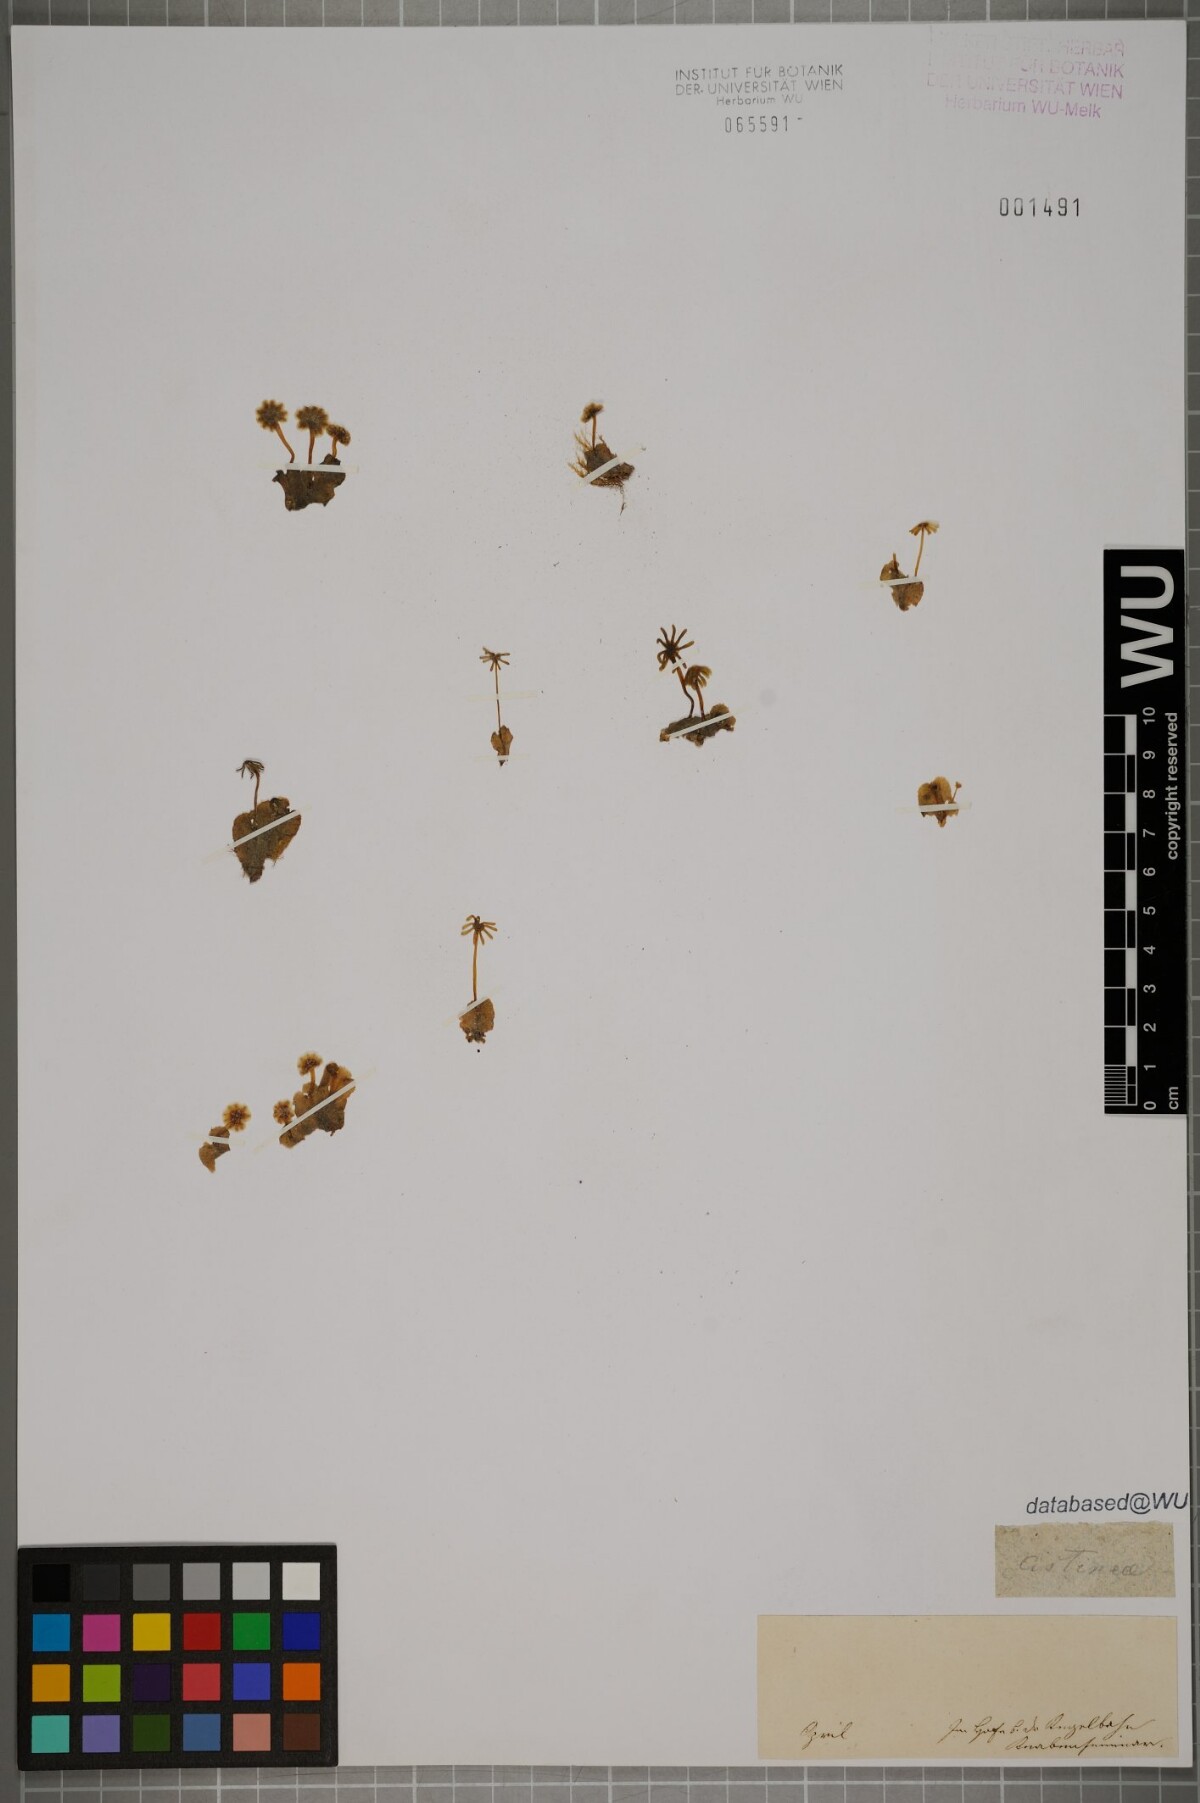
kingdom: Plantae
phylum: Marchantiophyta
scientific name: Marchantiophyta
